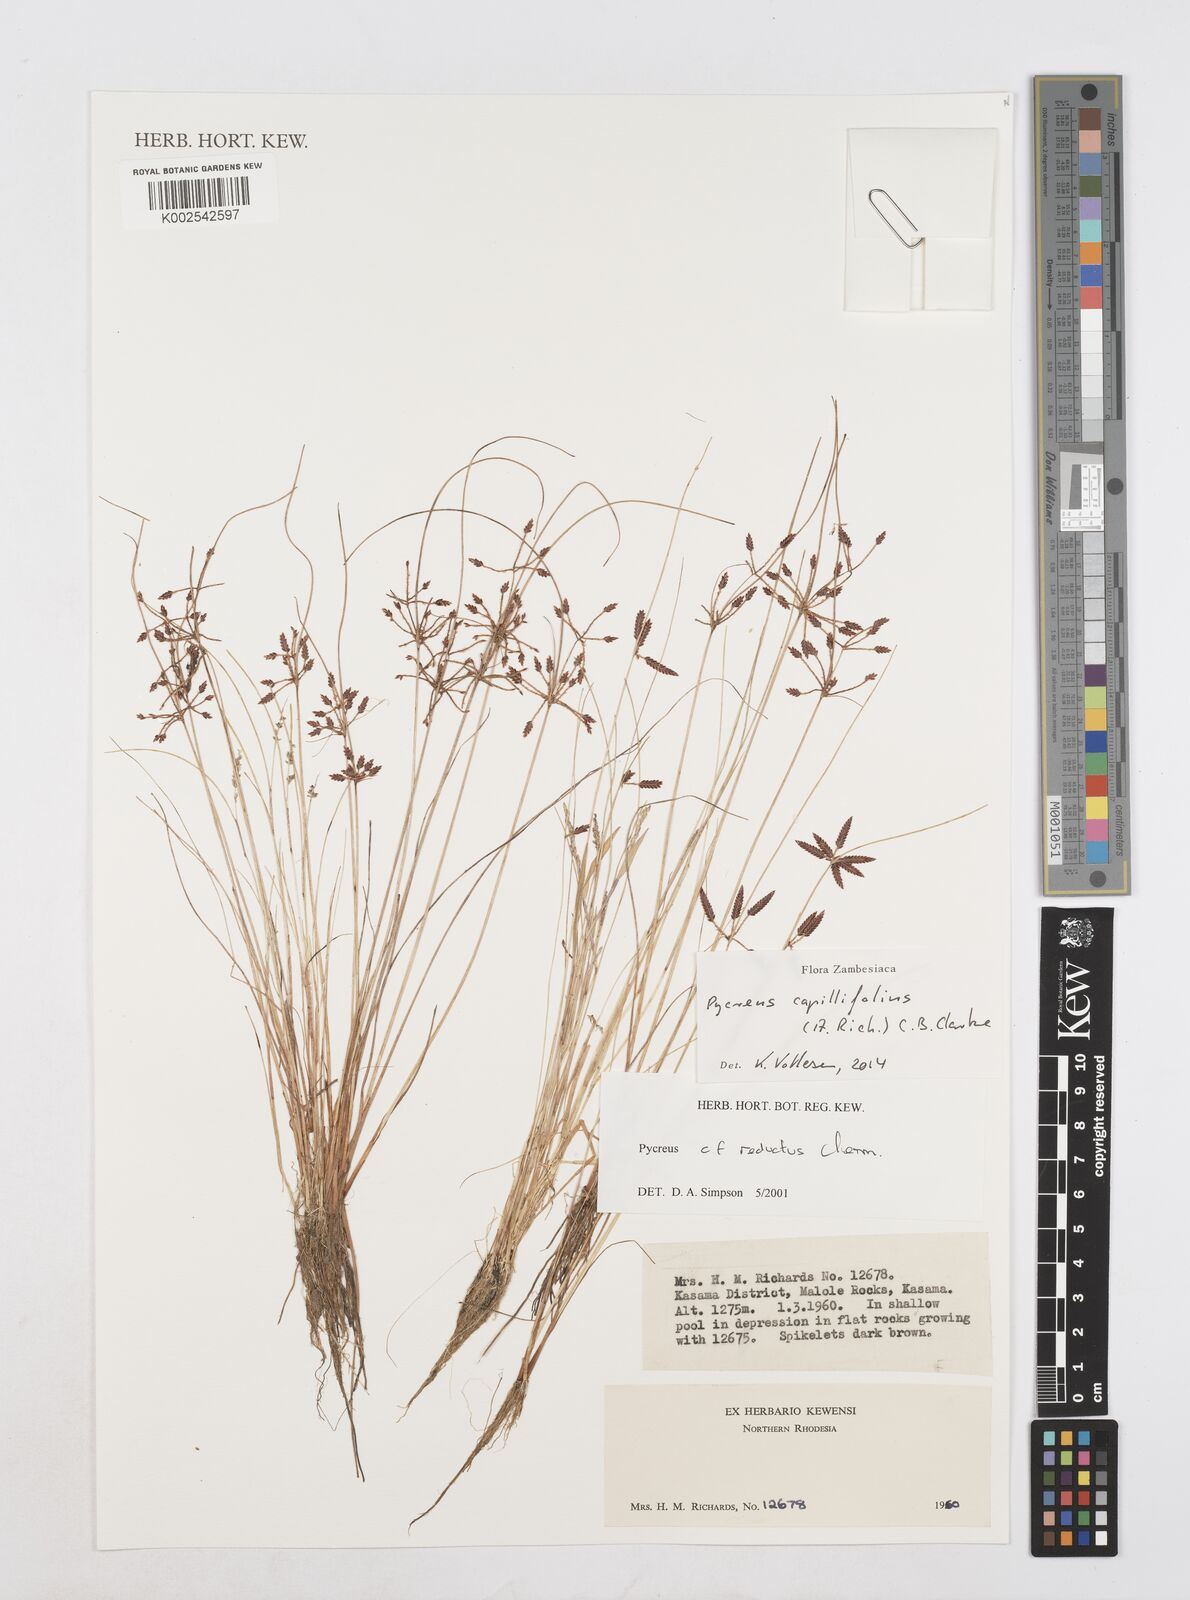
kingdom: Plantae
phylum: Tracheophyta
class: Liliopsida
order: Poales
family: Cyperaceae
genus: Cyperus
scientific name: Cyperus capillifolius
